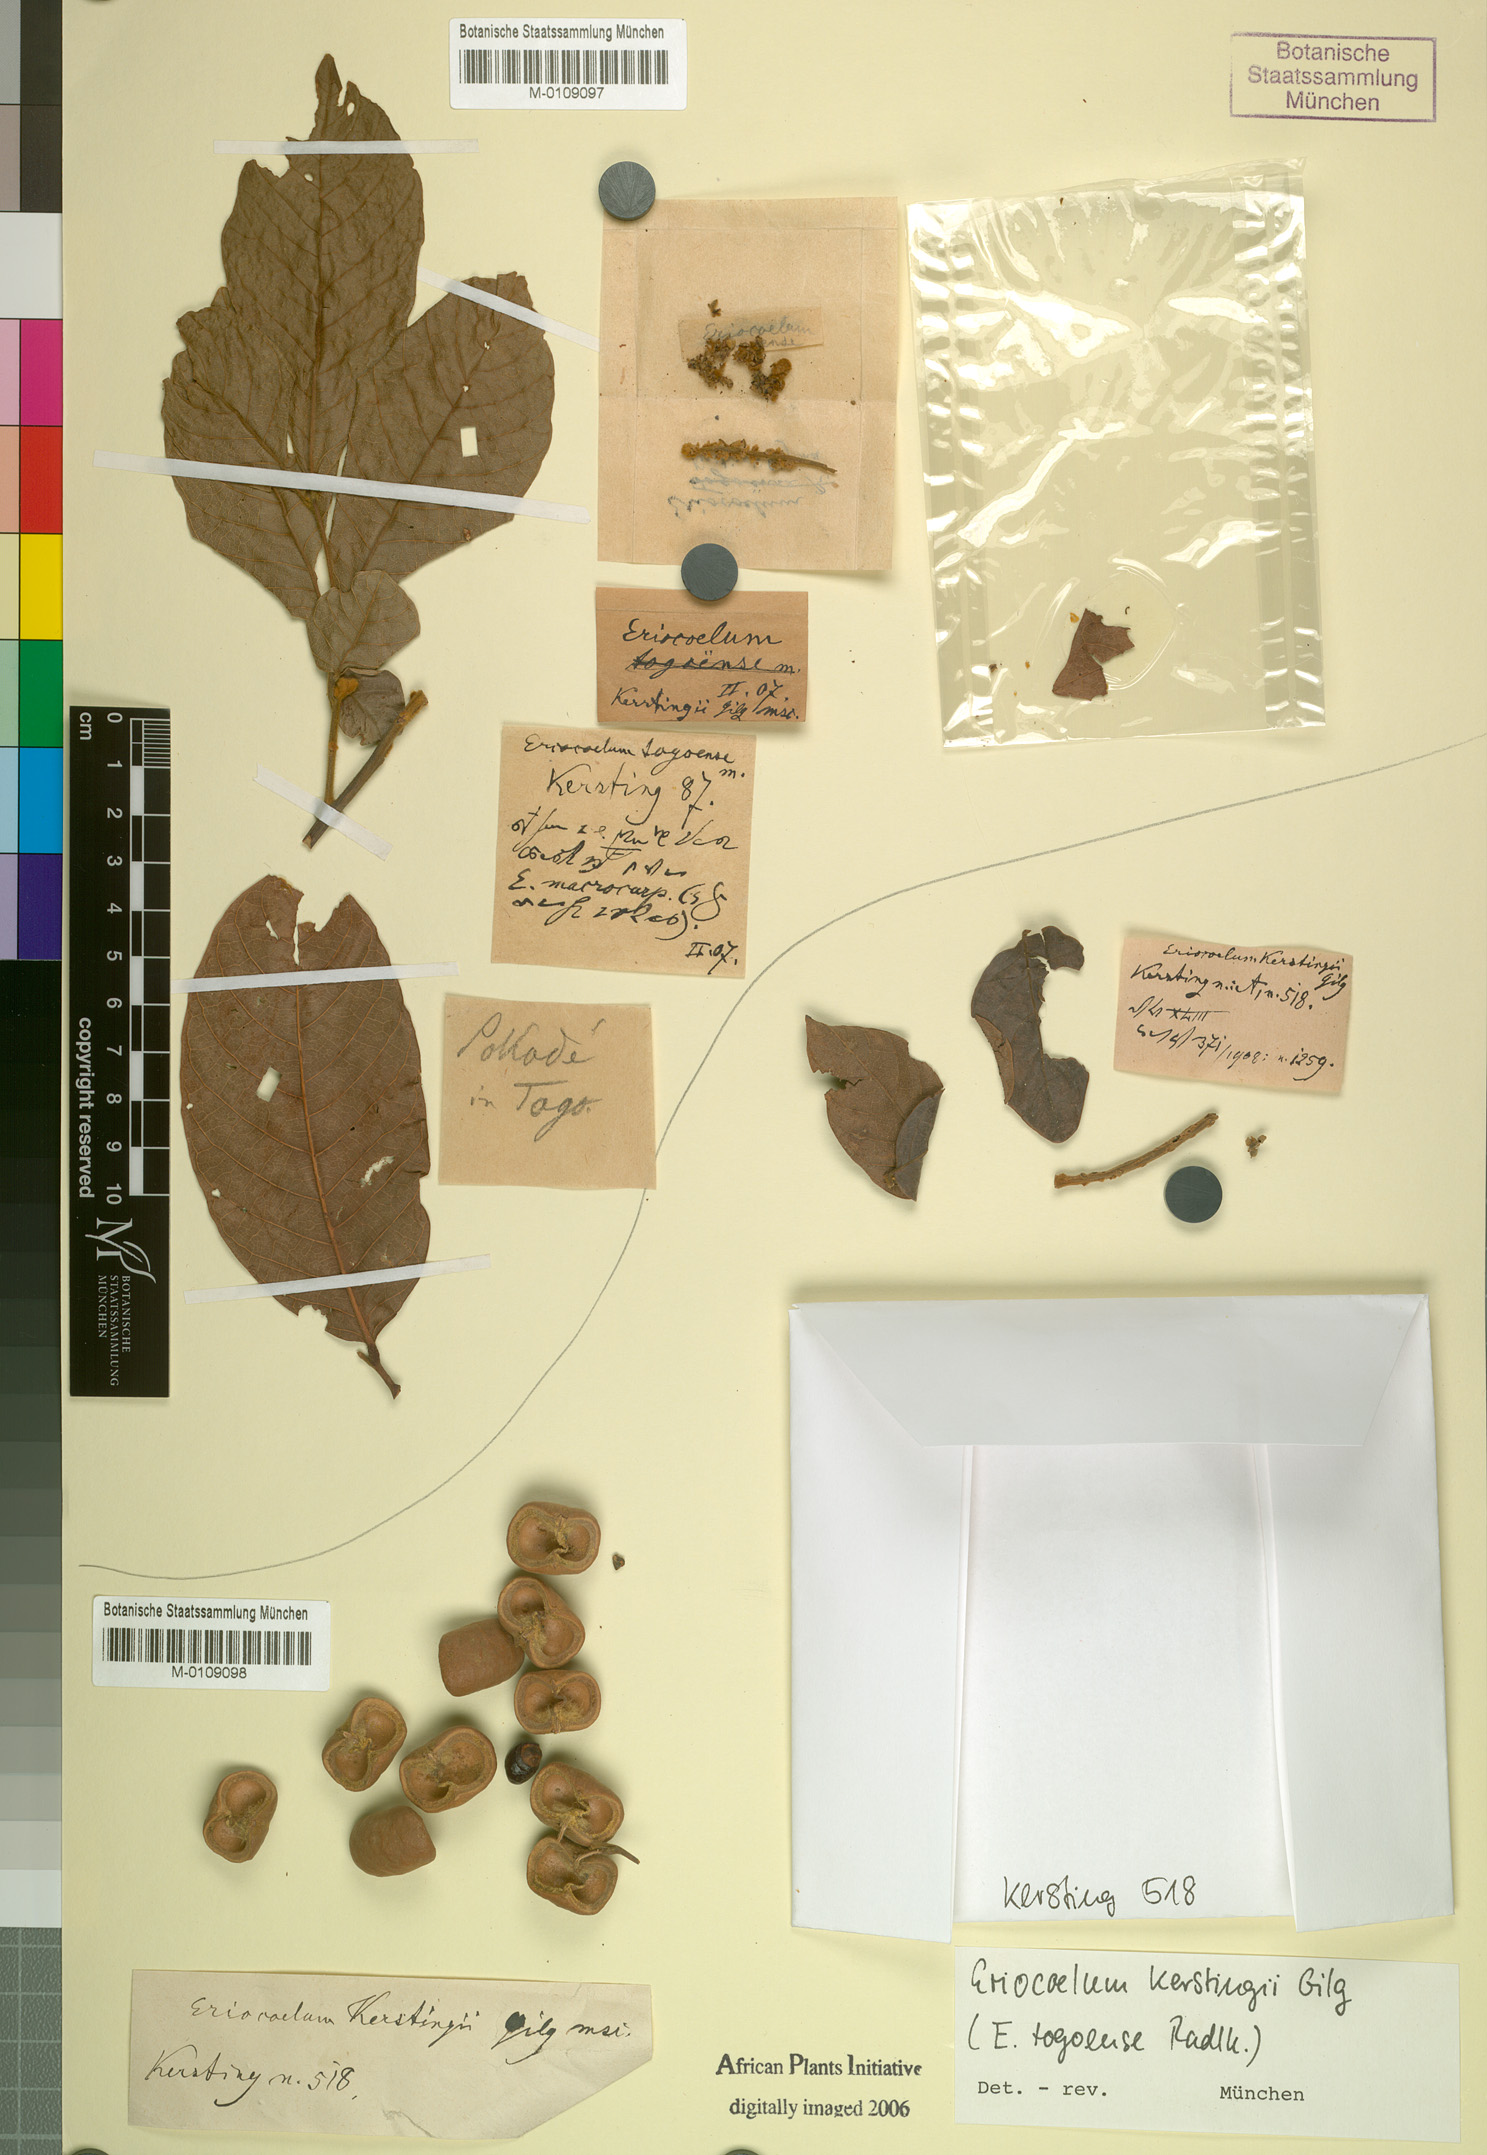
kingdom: Plantae
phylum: Tracheophyta
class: Magnoliopsida
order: Sapindales
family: Sapindaceae
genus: Eriocoelum
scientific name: Eriocoelum kerstingii
